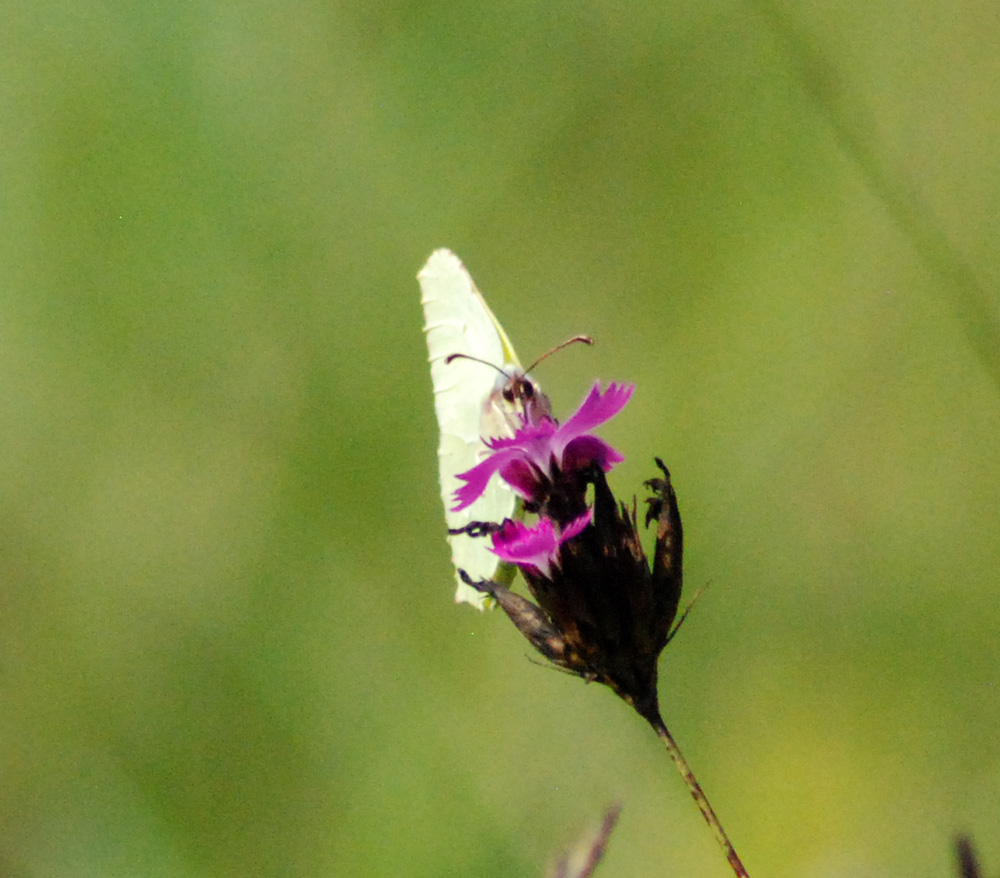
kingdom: Animalia
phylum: Arthropoda
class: Insecta
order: Lepidoptera
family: Pieridae
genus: Gonepteryx
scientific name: Gonepteryx rhamni
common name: Brimstone
